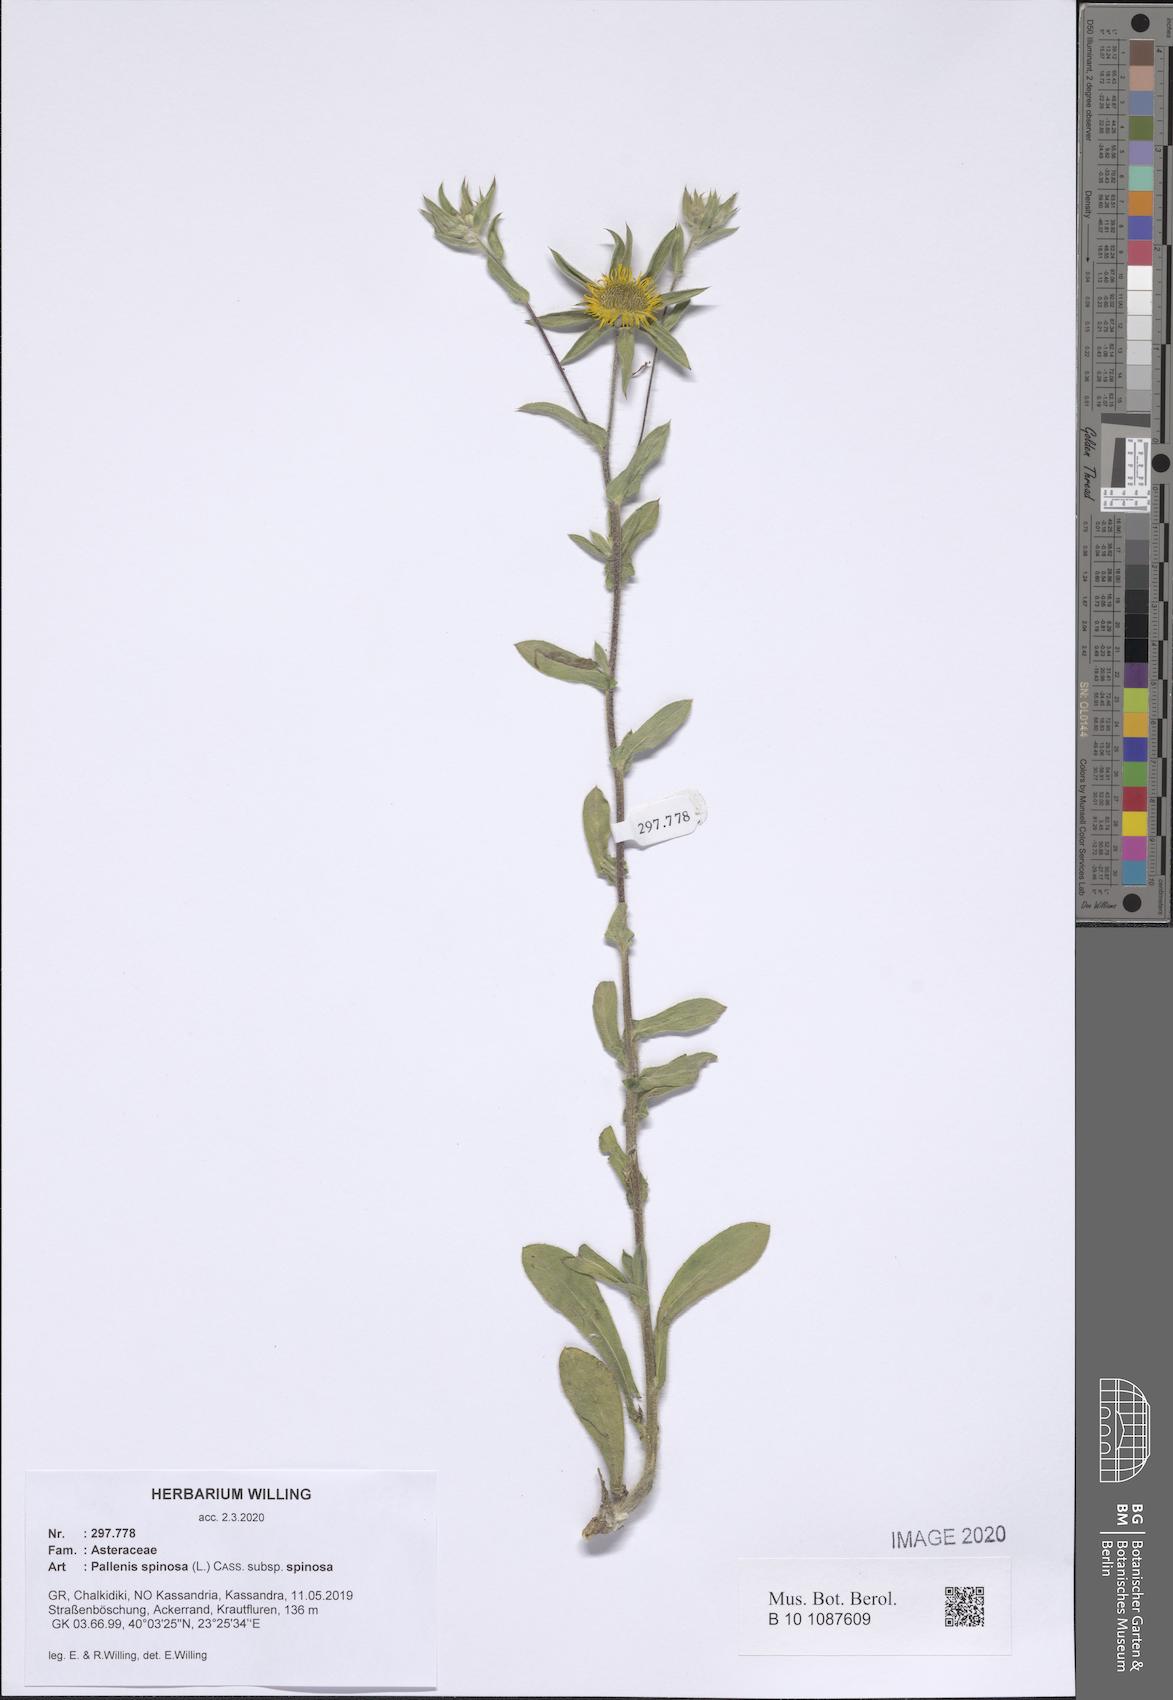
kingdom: Plantae
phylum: Tracheophyta
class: Magnoliopsida
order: Asterales
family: Asteraceae
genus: Pallenis
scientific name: Pallenis spinosa
